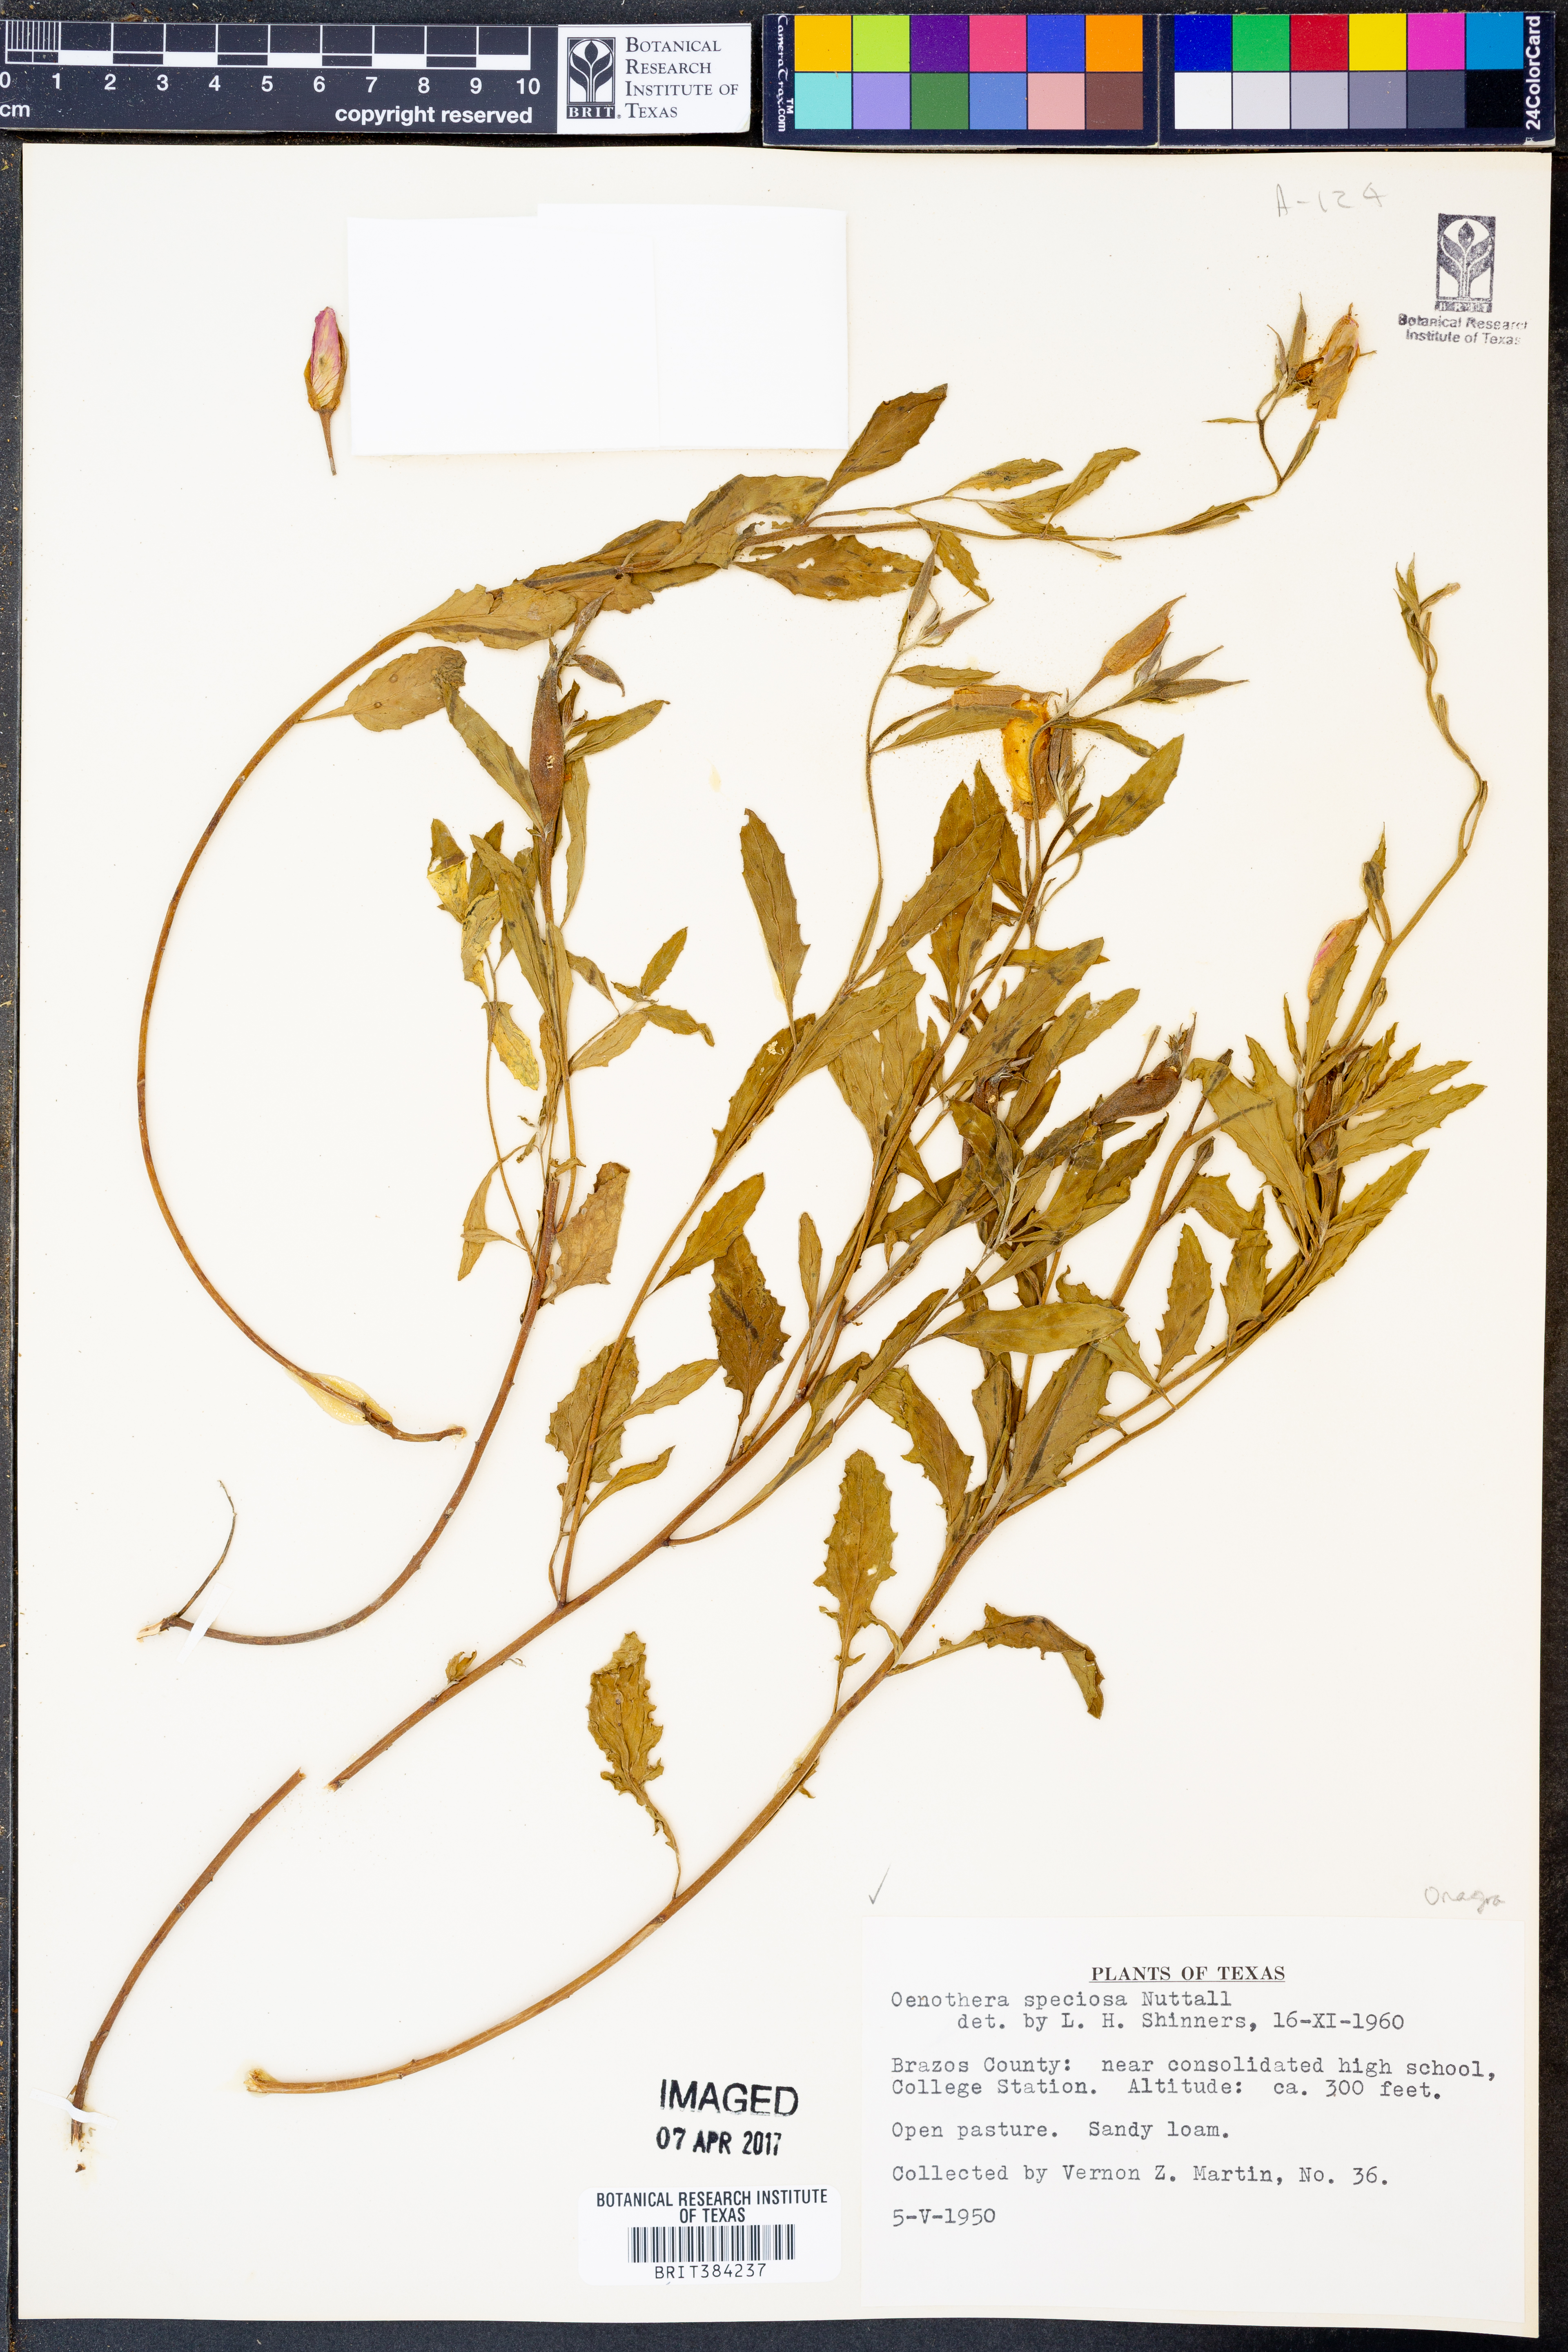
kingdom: Plantae
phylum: Tracheophyta
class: Magnoliopsida
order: Myrtales
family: Onagraceae
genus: Oenothera
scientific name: Oenothera speciosa
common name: White evening-primrose
